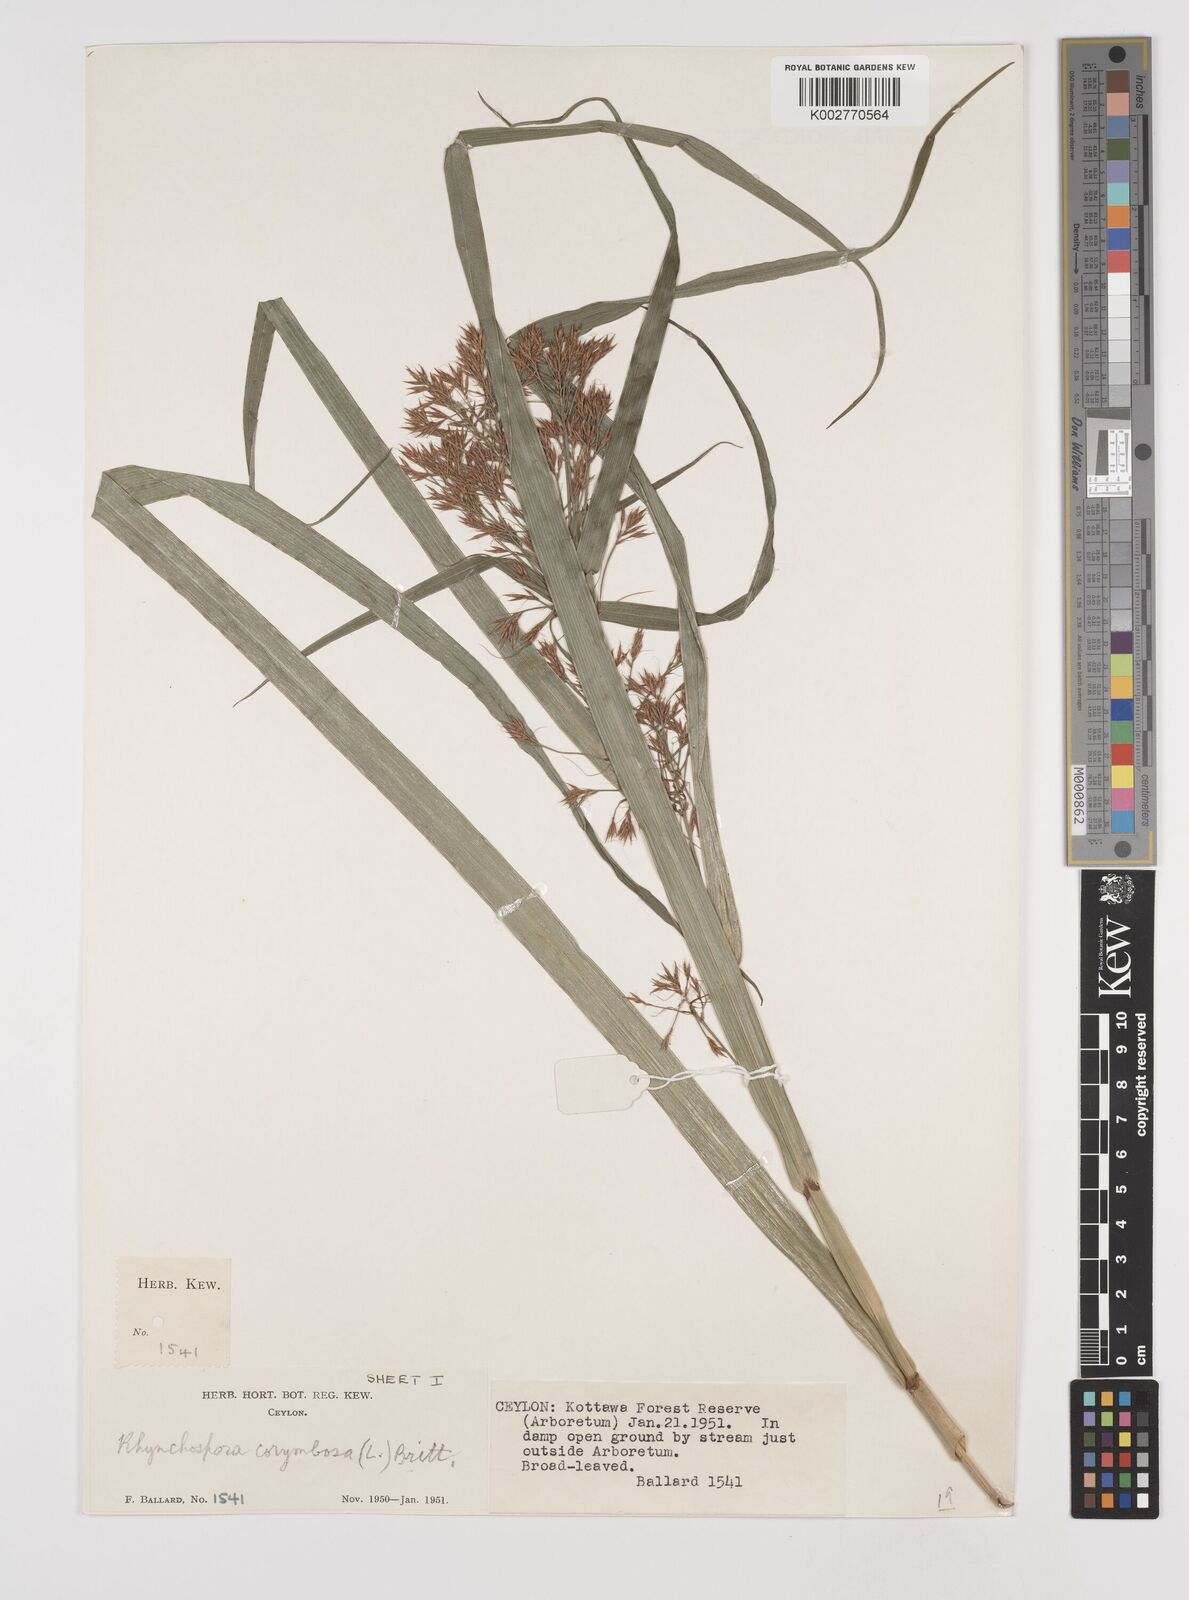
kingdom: Plantae
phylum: Tracheophyta
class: Liliopsida
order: Poales
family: Cyperaceae
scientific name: Cyperaceae
